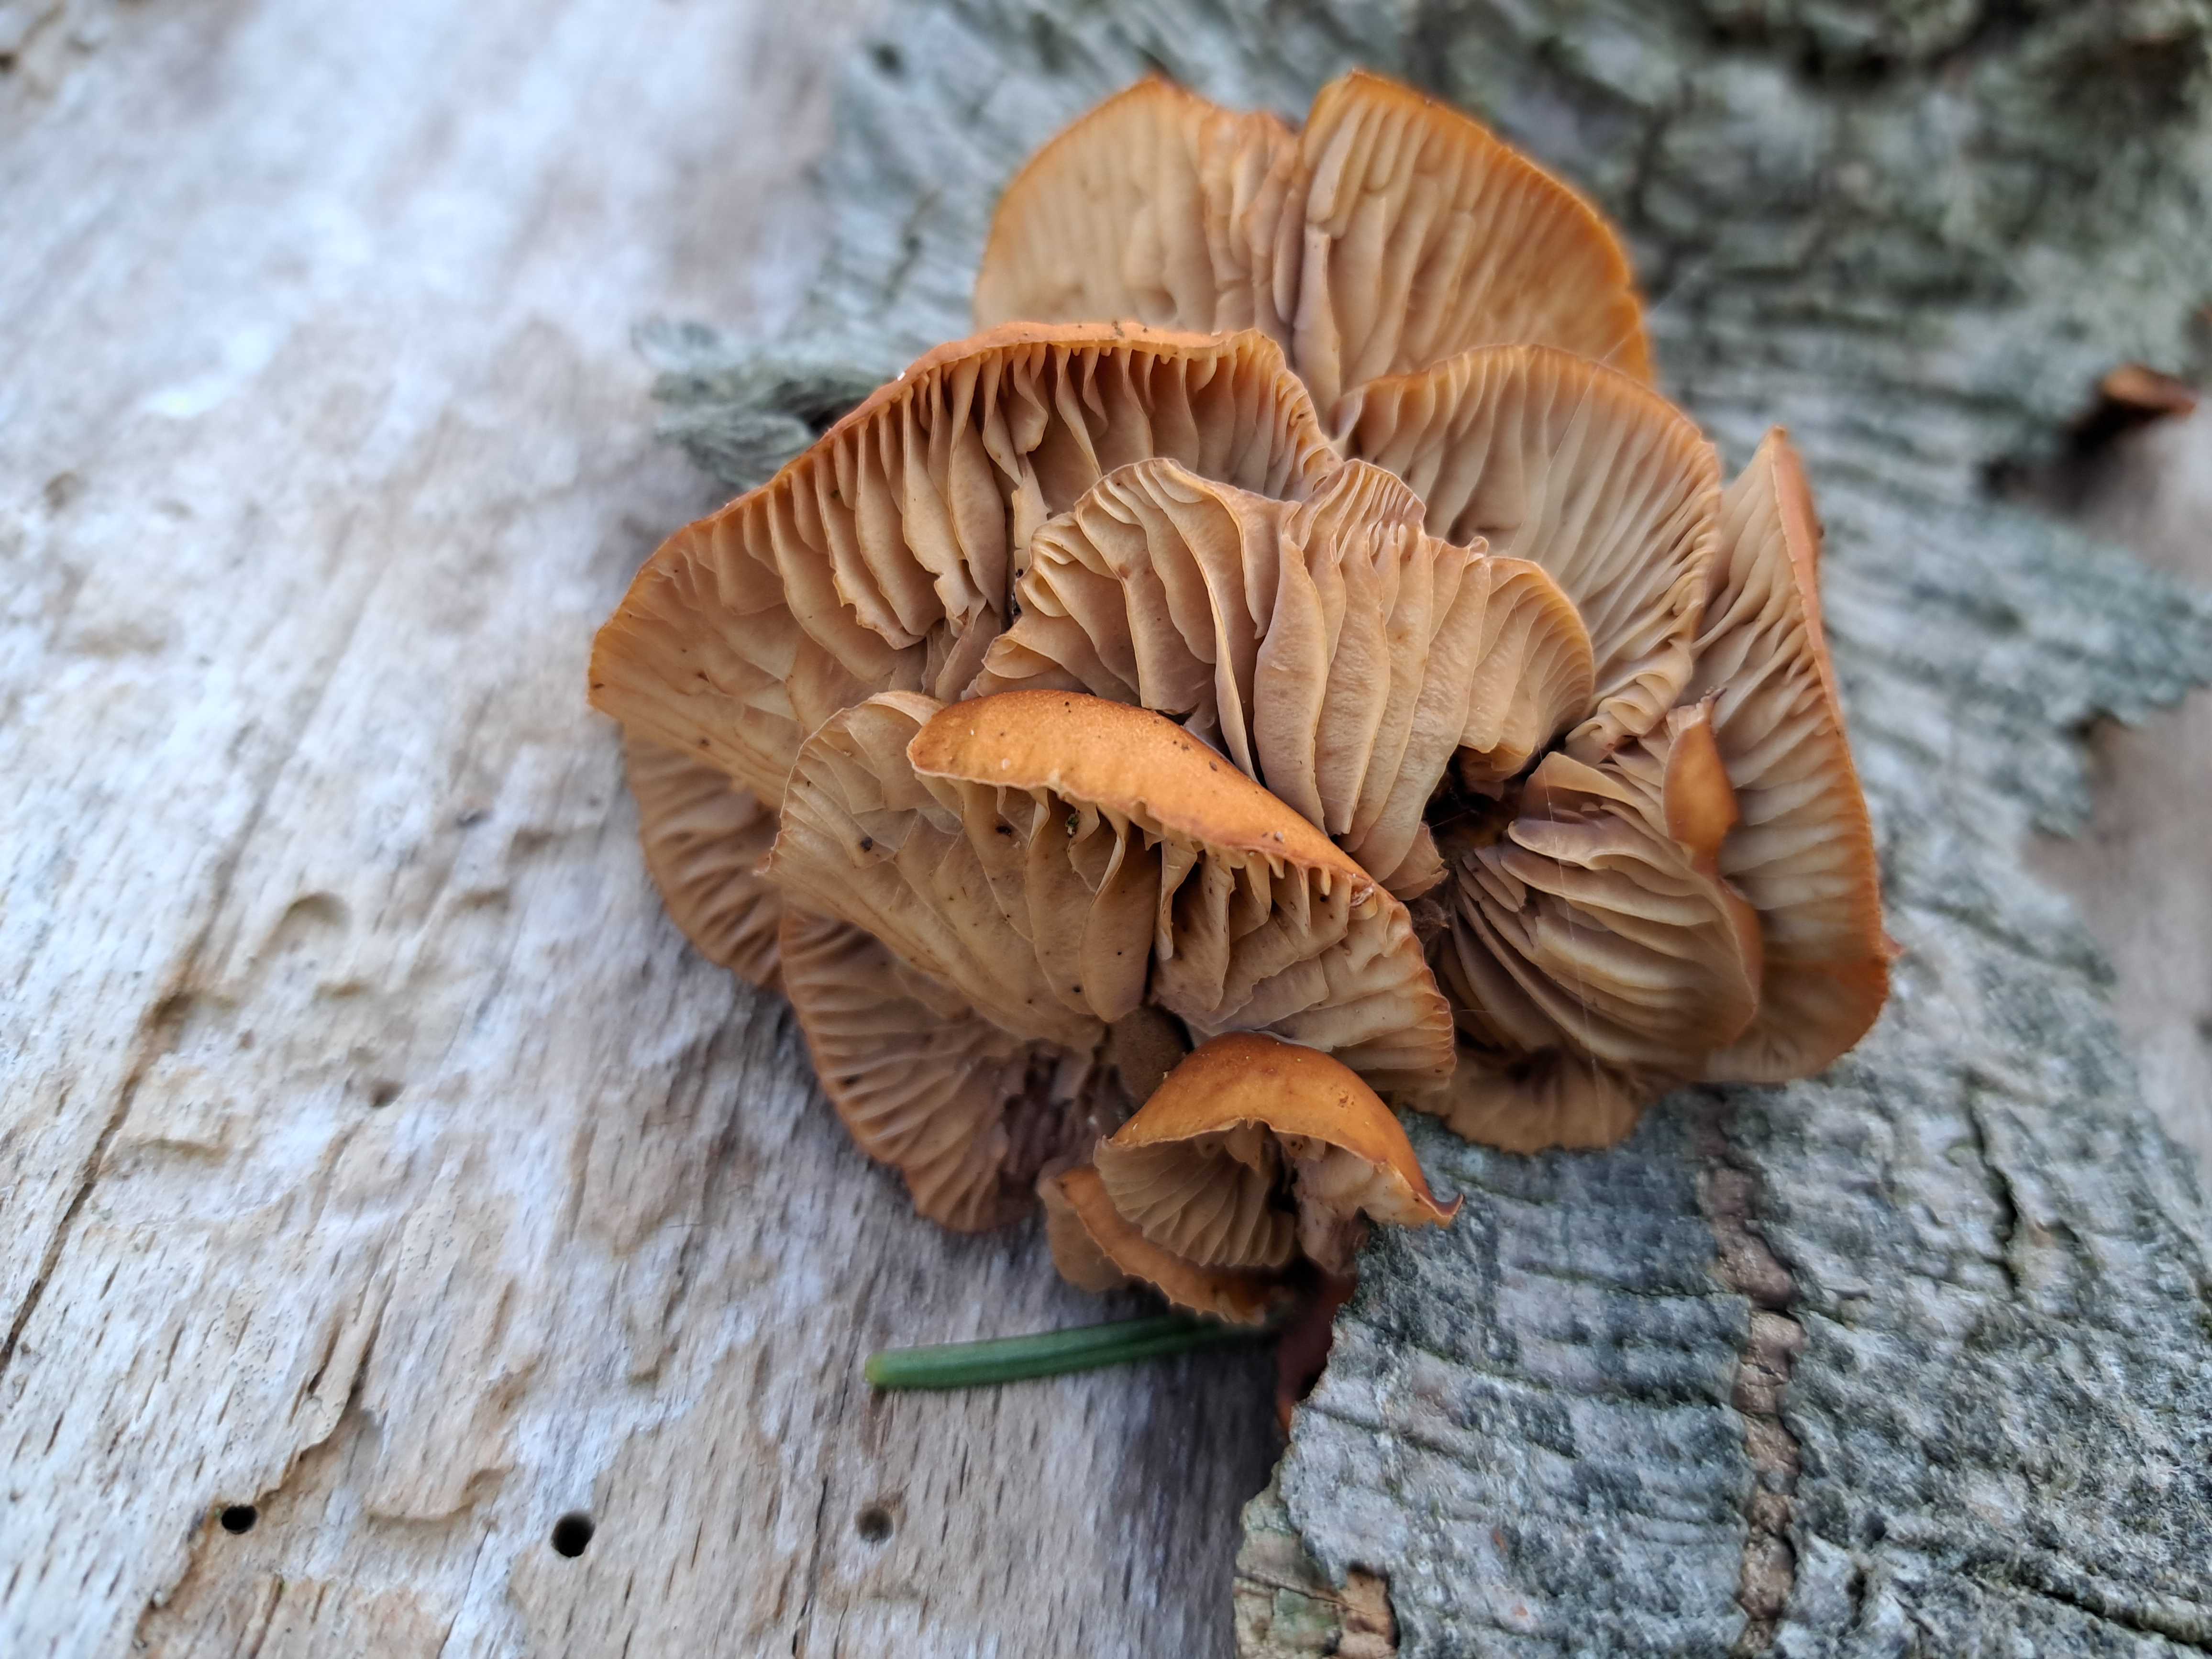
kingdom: Fungi
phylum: Basidiomycota
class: Agaricomycetes
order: Agaricales
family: Physalacriaceae
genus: Flammulina
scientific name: Flammulina velutipes
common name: gul fløjlsfod
